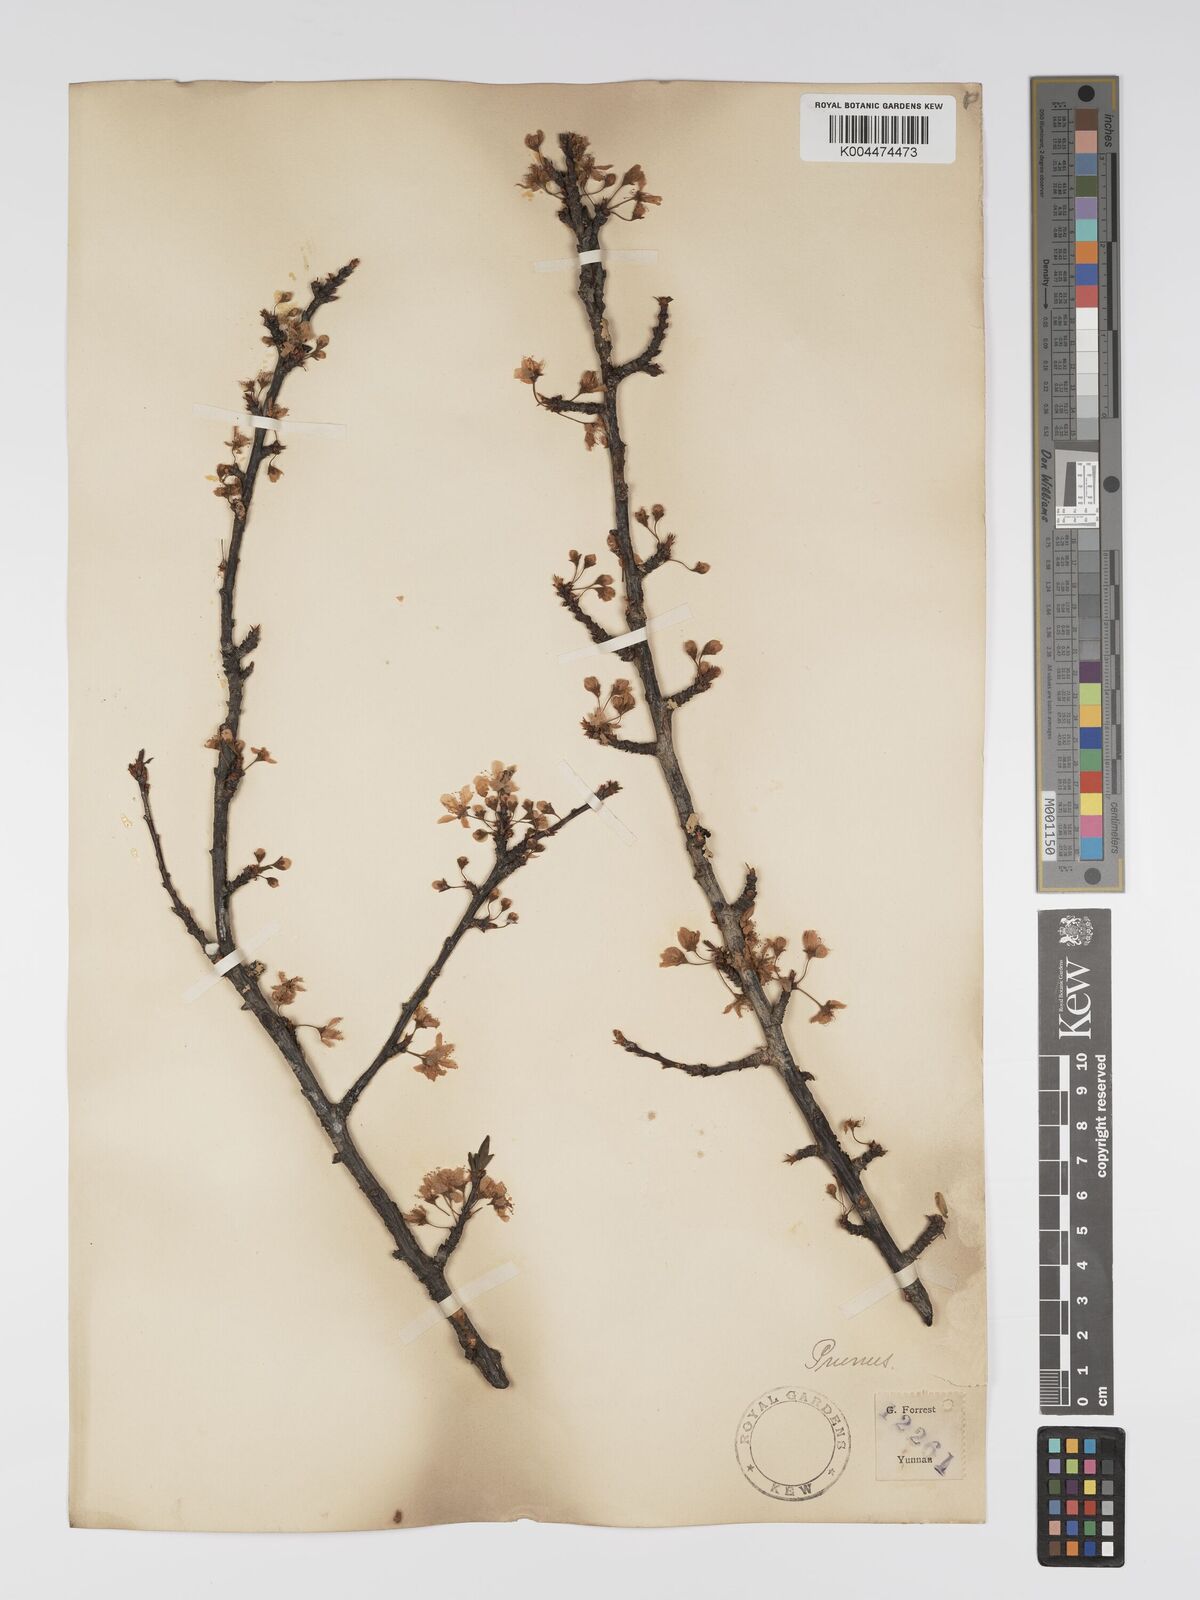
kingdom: Plantae
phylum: Tracheophyta
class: Magnoliopsida
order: Rosales
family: Rosaceae
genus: Prunus
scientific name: Prunus
